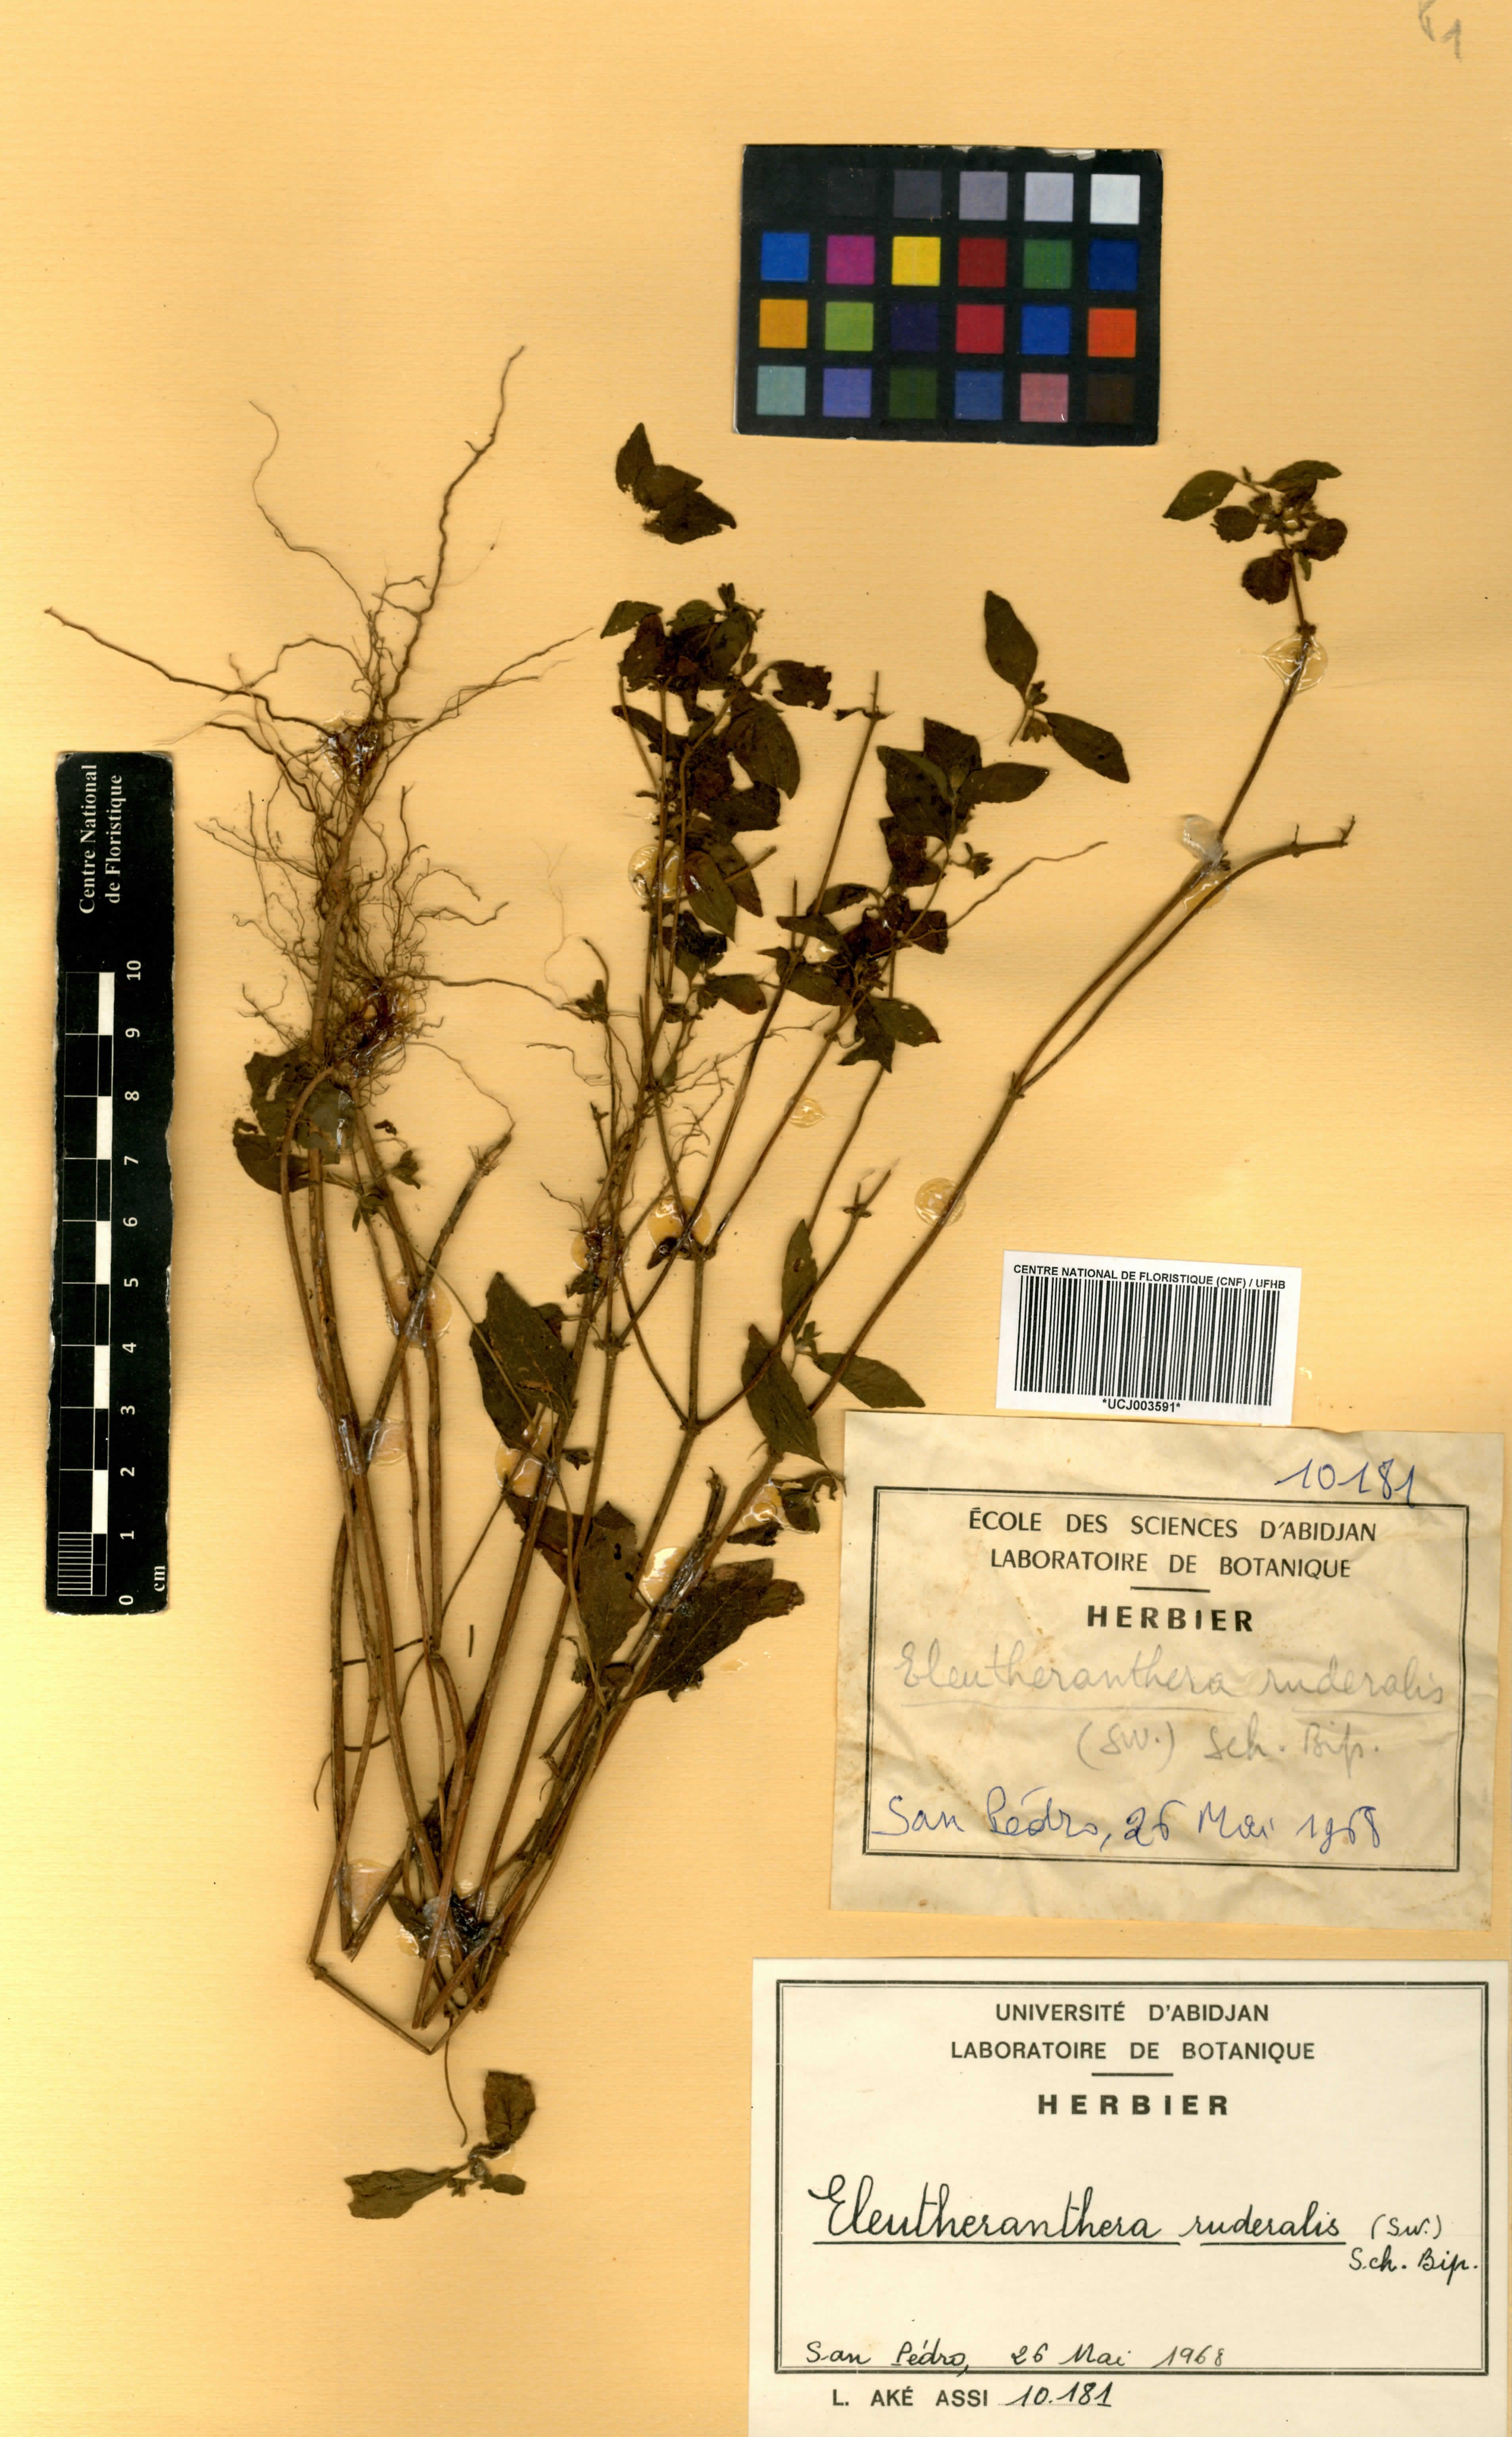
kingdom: Plantae
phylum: Tracheophyta
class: Magnoliopsida
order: Asterales
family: Asteraceae
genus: Eleutheranthera
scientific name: Eleutheranthera ruderalis
